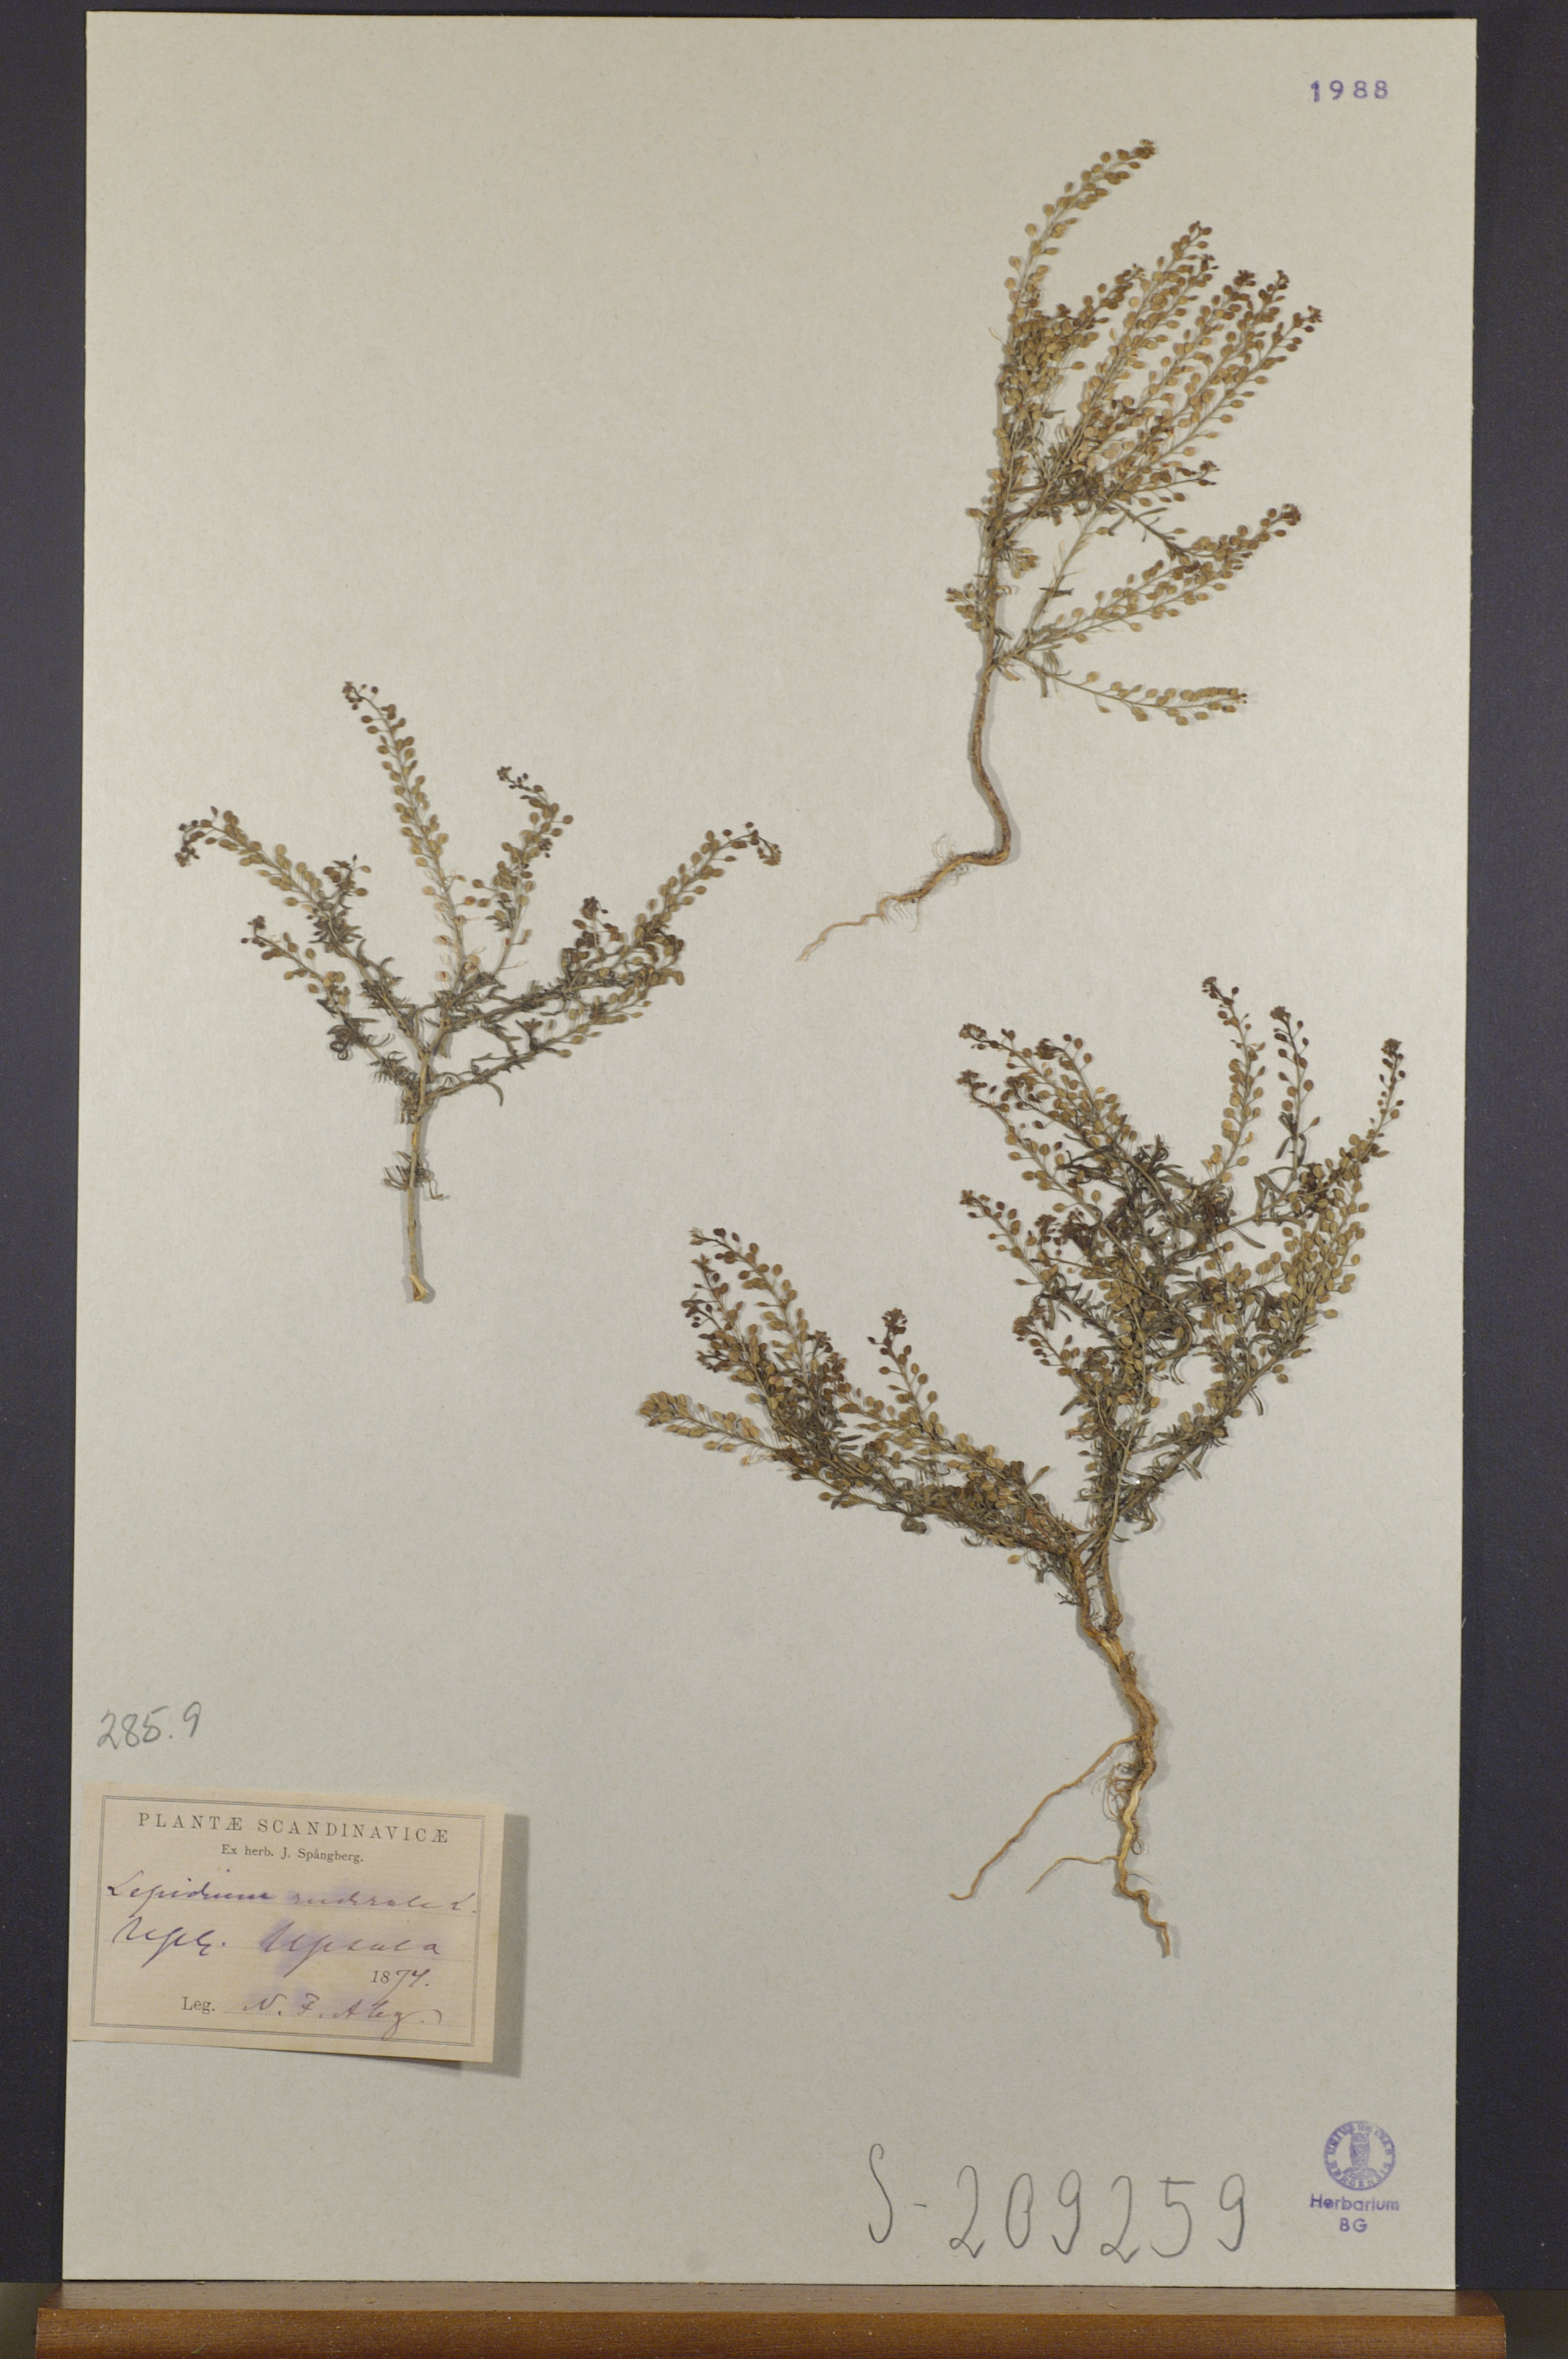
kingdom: Plantae
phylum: Tracheophyta
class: Magnoliopsida
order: Brassicales
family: Brassicaceae
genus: Lepidium
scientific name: Lepidium ruderale
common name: Narrow-leaved pepperwort
